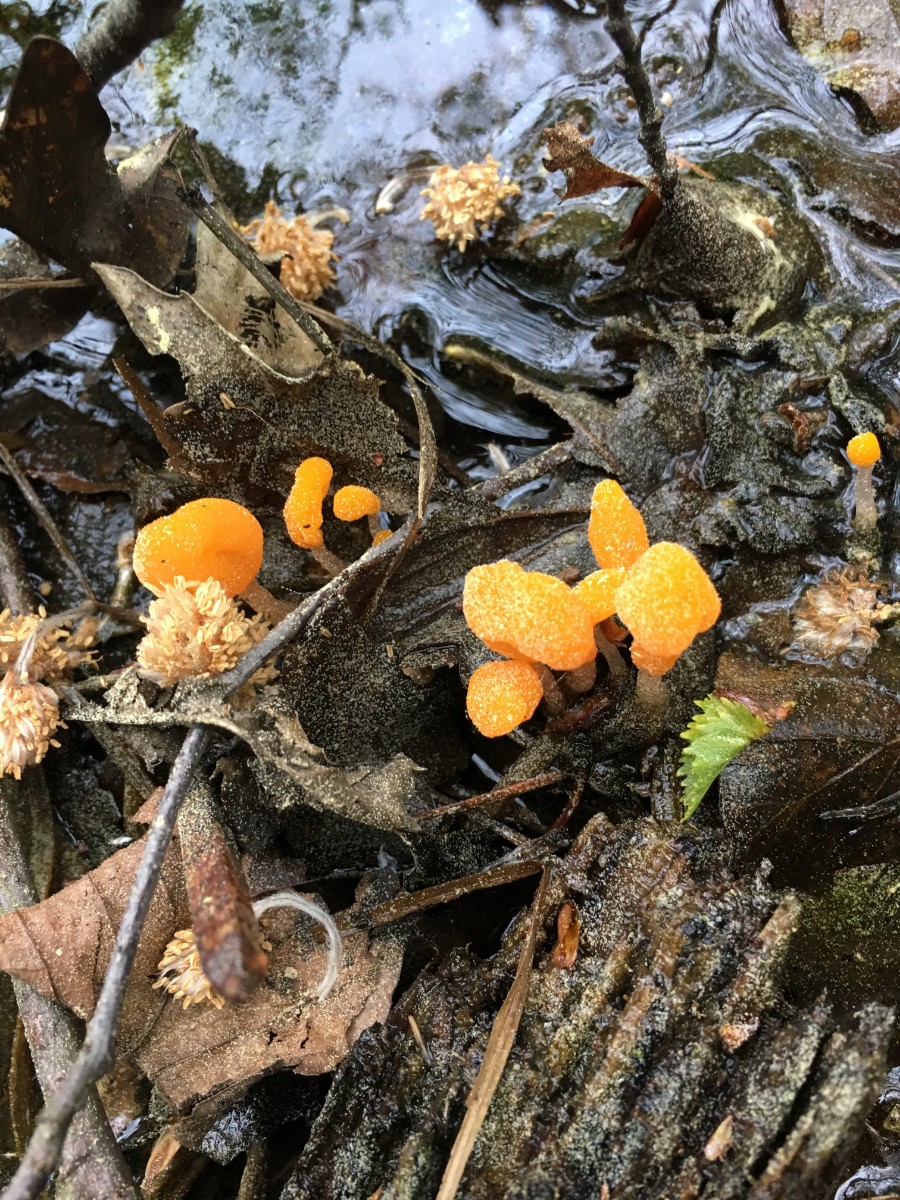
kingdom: Fungi
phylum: Ascomycota
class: Leotiomycetes
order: Helotiales
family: Cenangiaceae
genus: Mitrula
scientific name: Mitrula paludosa
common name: gul nøkketunge
